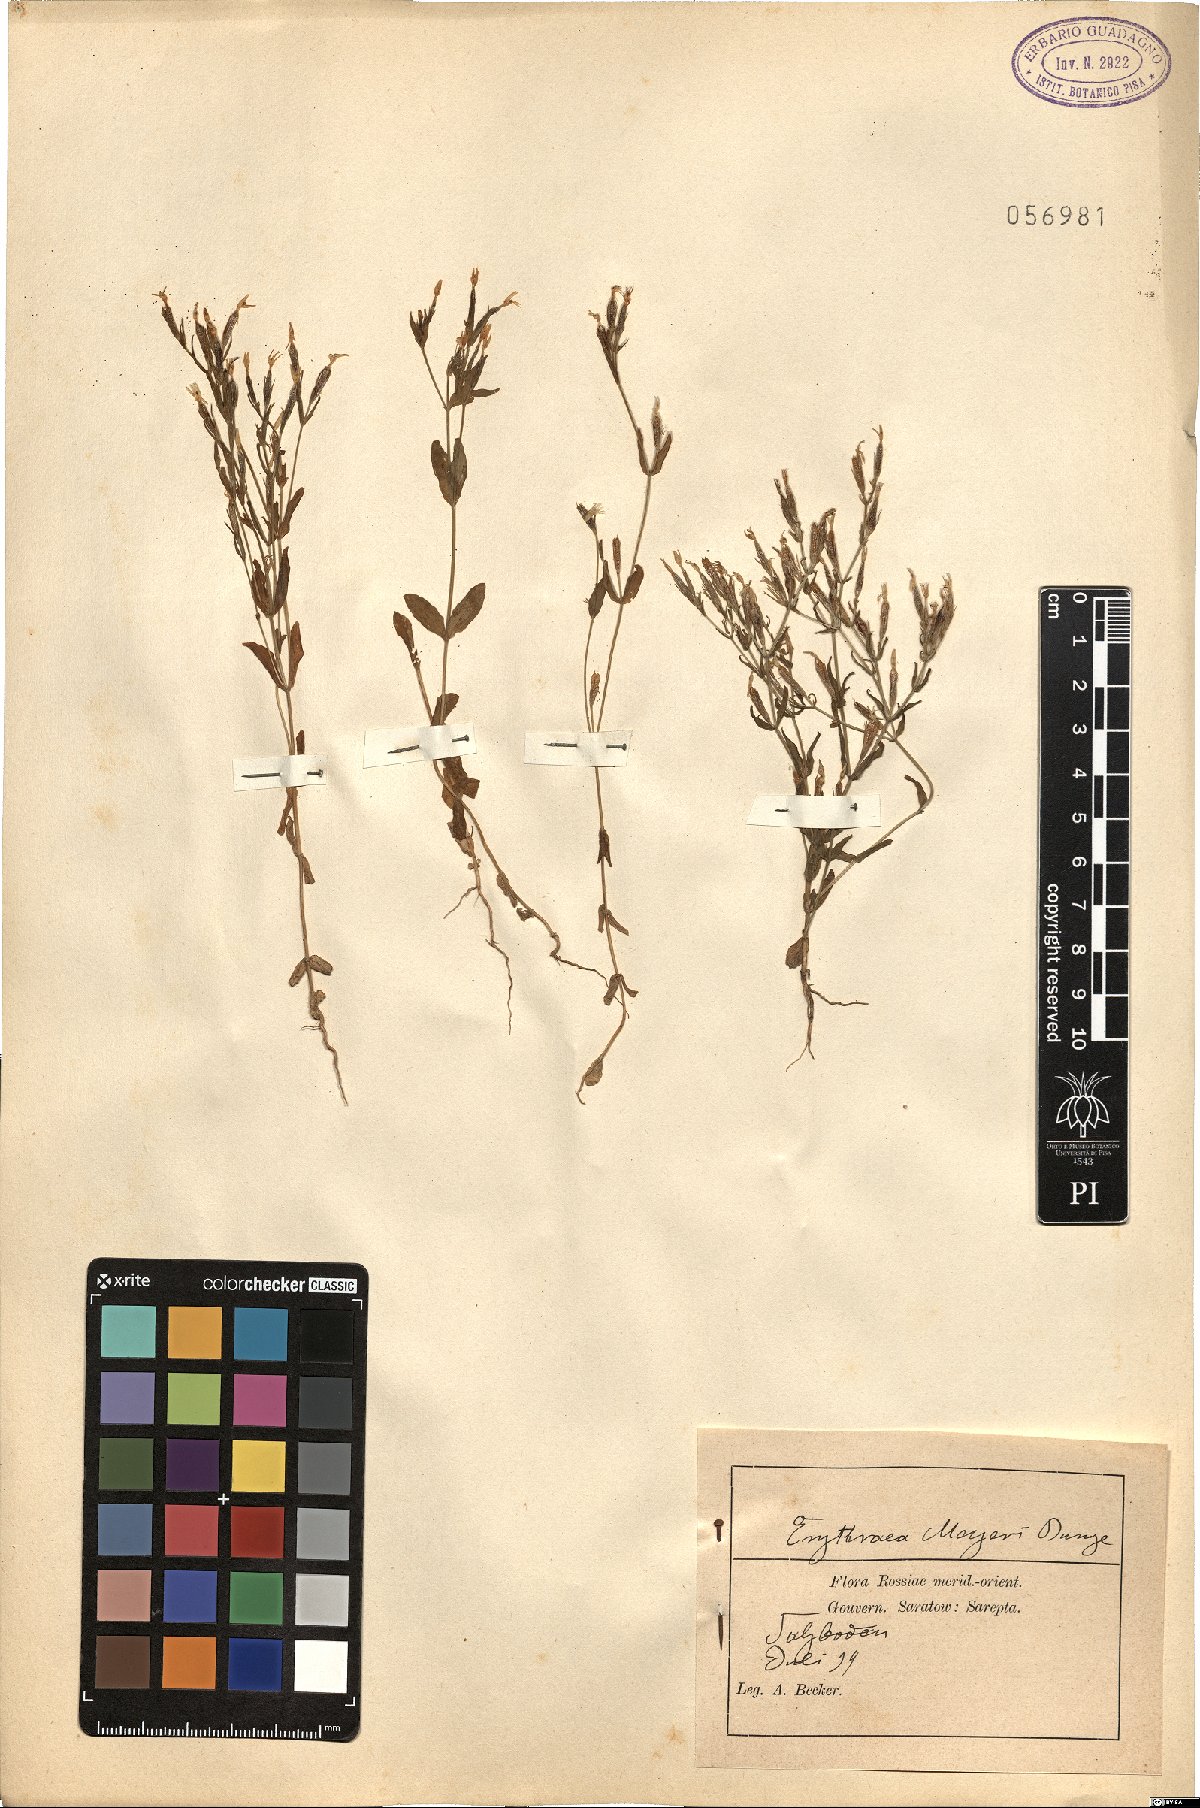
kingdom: Plantae
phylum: Tracheophyta
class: Magnoliopsida
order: Gentianales
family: Gentianaceae
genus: Centaurium
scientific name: Centaurium pulchellum
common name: Lesser centaury
